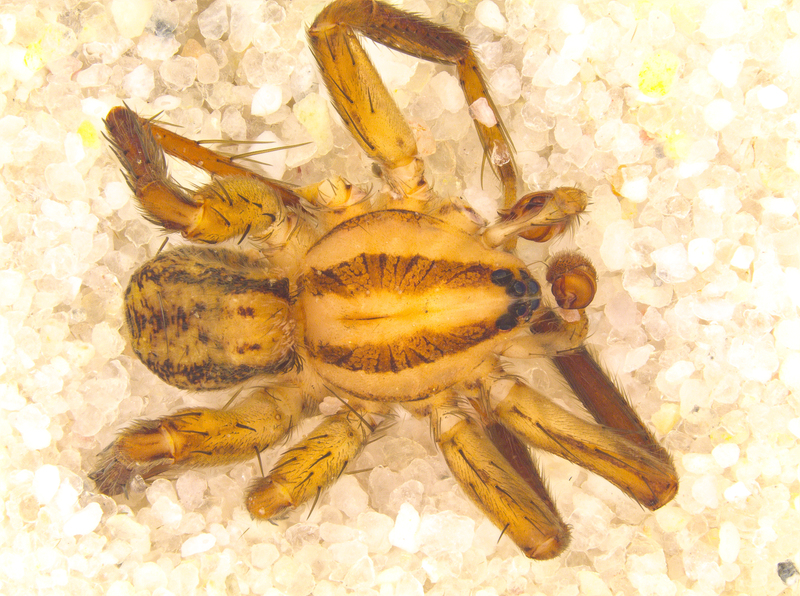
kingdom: Animalia
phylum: Arthropoda
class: Arachnida
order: Araneae
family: Miturgidae
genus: Zora
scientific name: Zora spinimana
